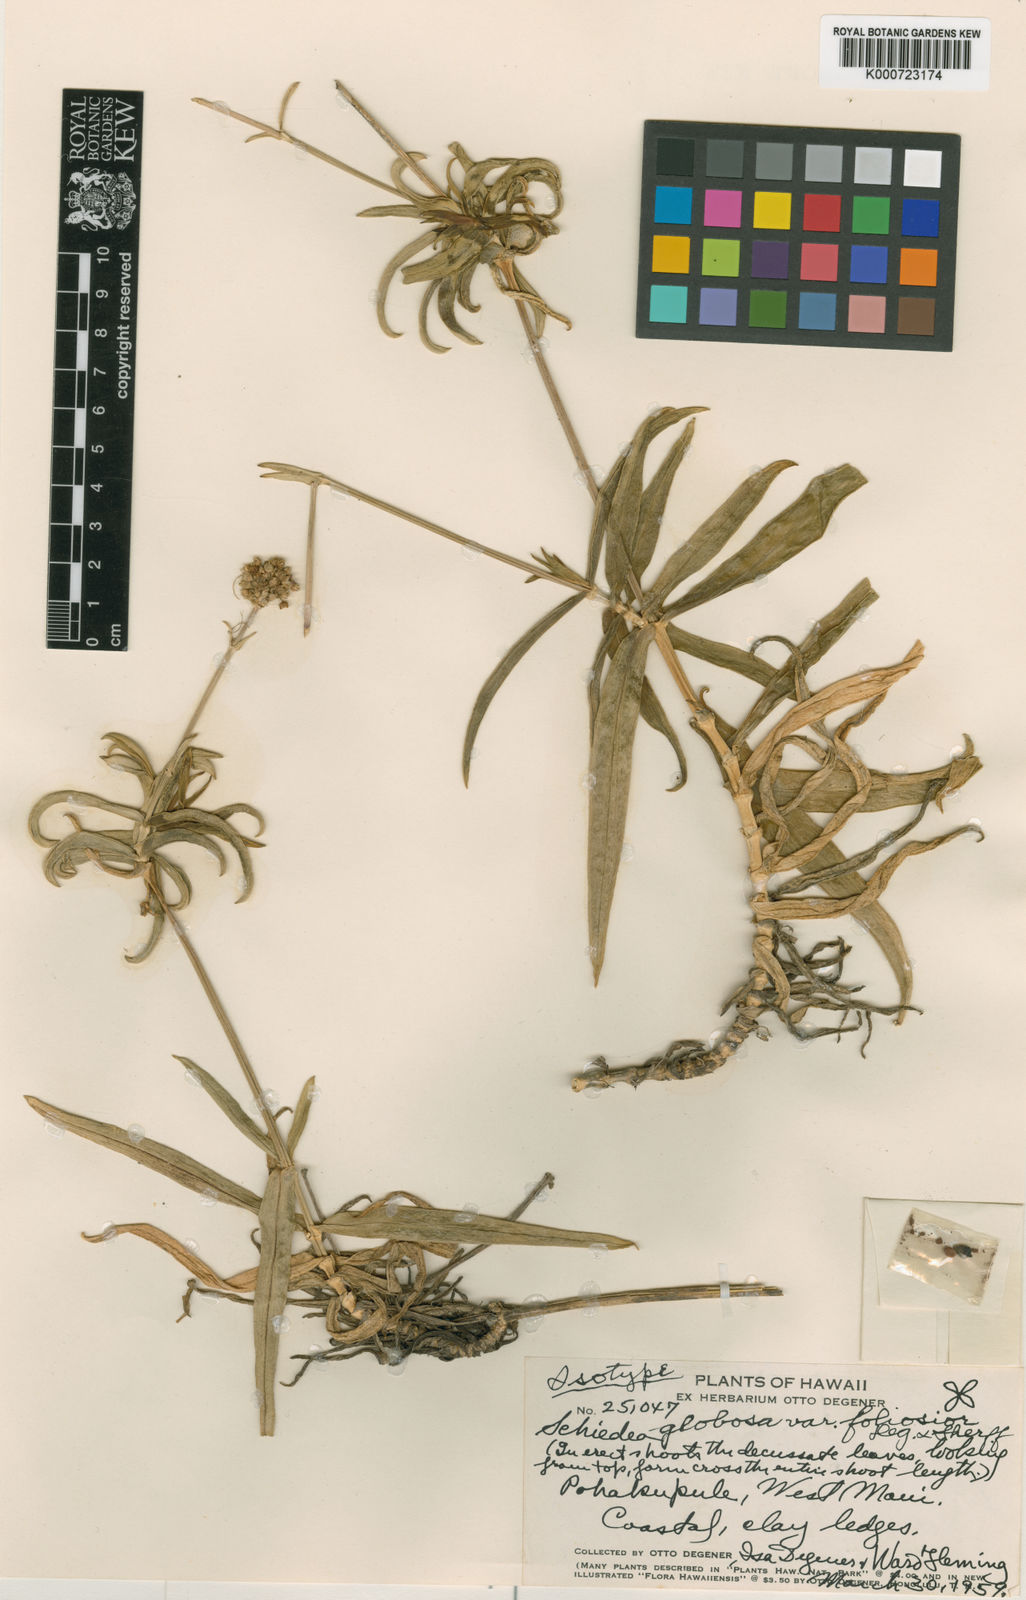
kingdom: Plantae
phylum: Tracheophyta
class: Magnoliopsida
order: Caryophyllales
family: Caryophyllaceae
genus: Schiedea
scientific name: Schiedea globosa
